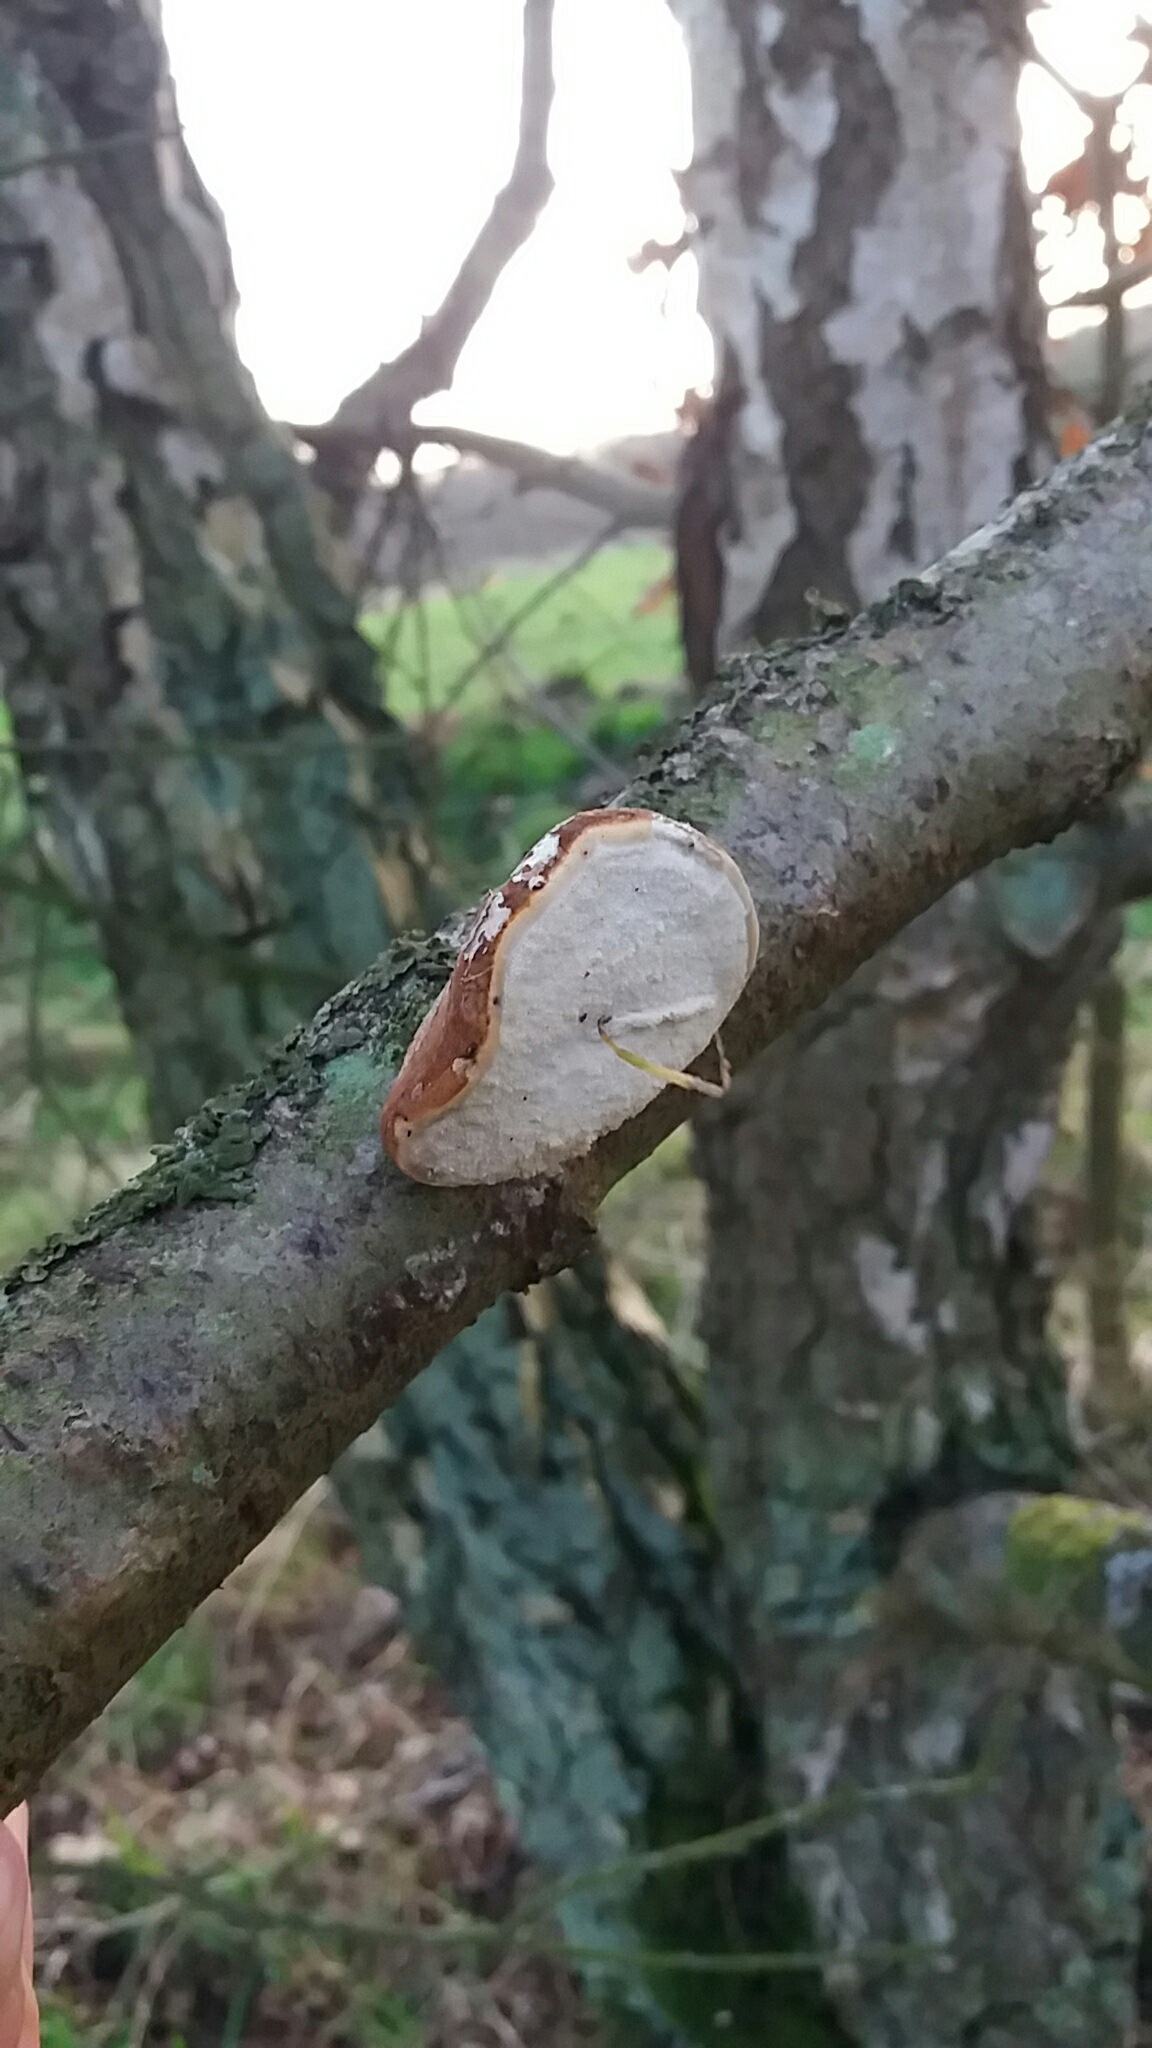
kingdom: Fungi
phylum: Basidiomycota
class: Agaricomycetes
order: Polyporales
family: Fomitopsidaceae
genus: Fomitopsis
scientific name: Fomitopsis betulina
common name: birkeporesvamp
